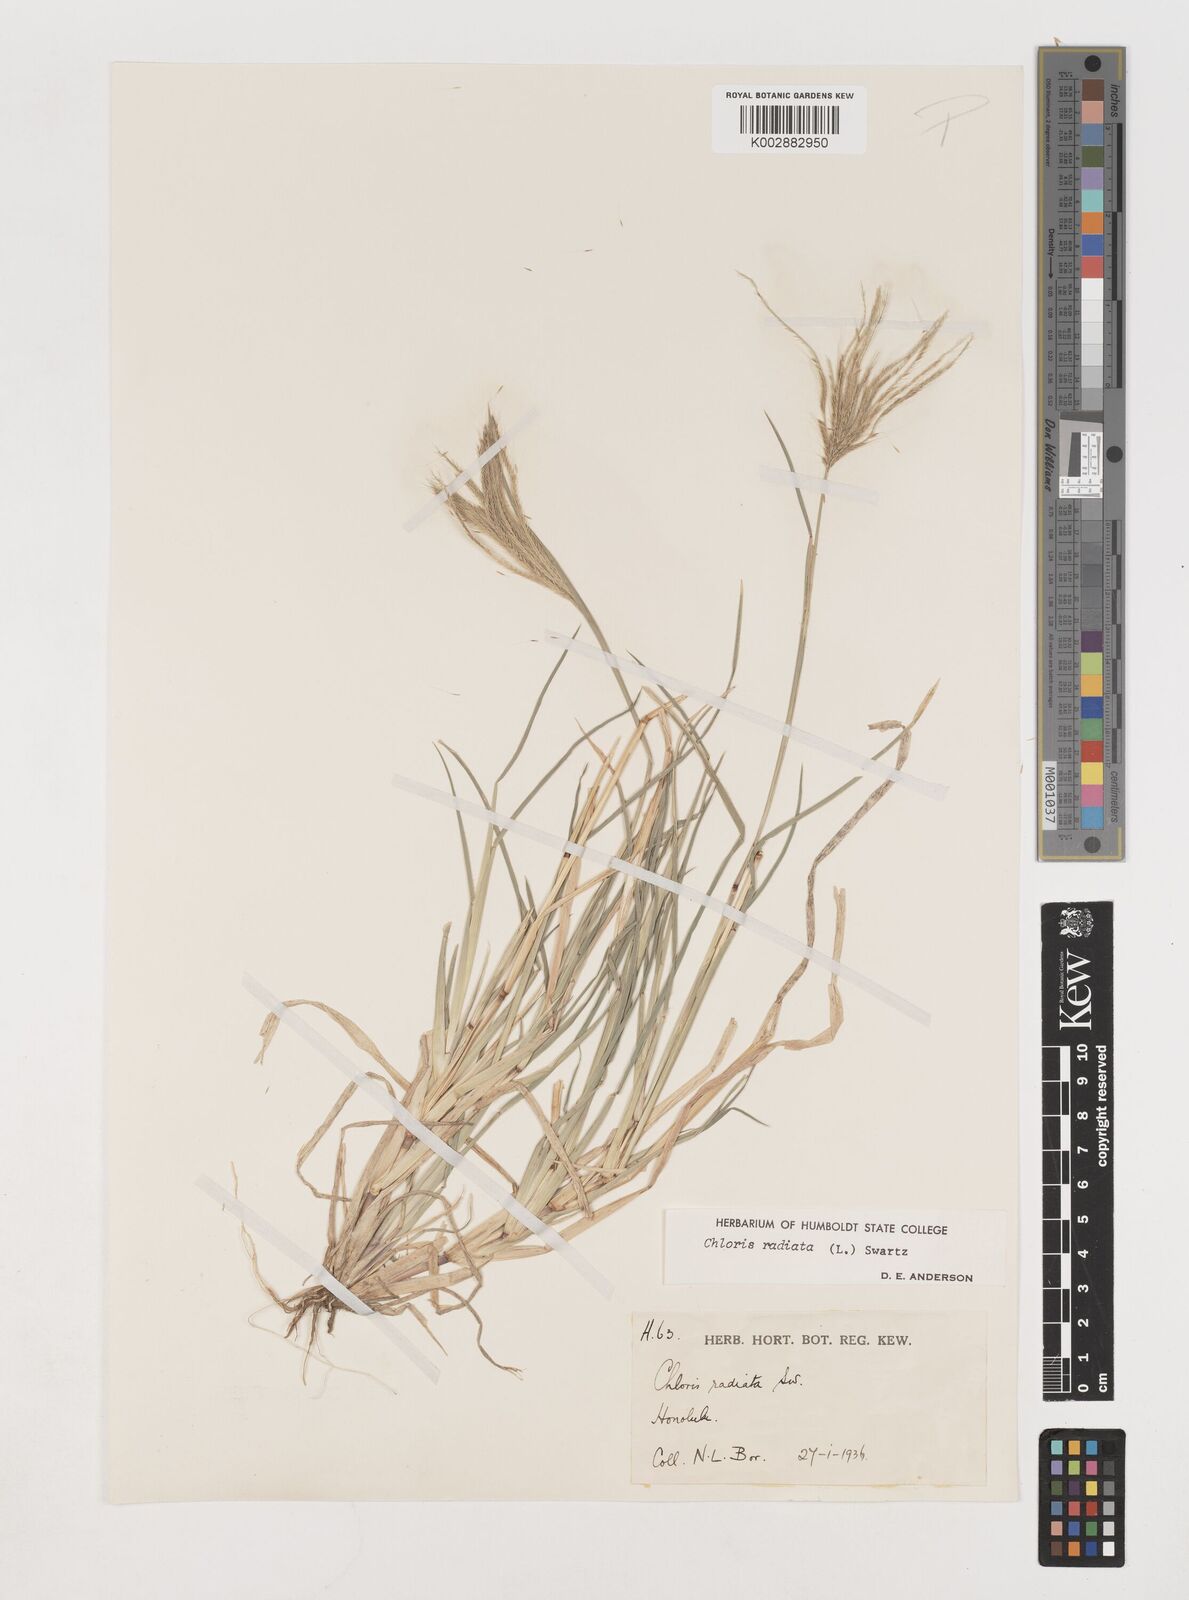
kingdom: Plantae
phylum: Tracheophyta
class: Liliopsida
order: Poales
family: Poaceae
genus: Chloris
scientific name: Chloris radiata
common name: Radiate fingergrass
